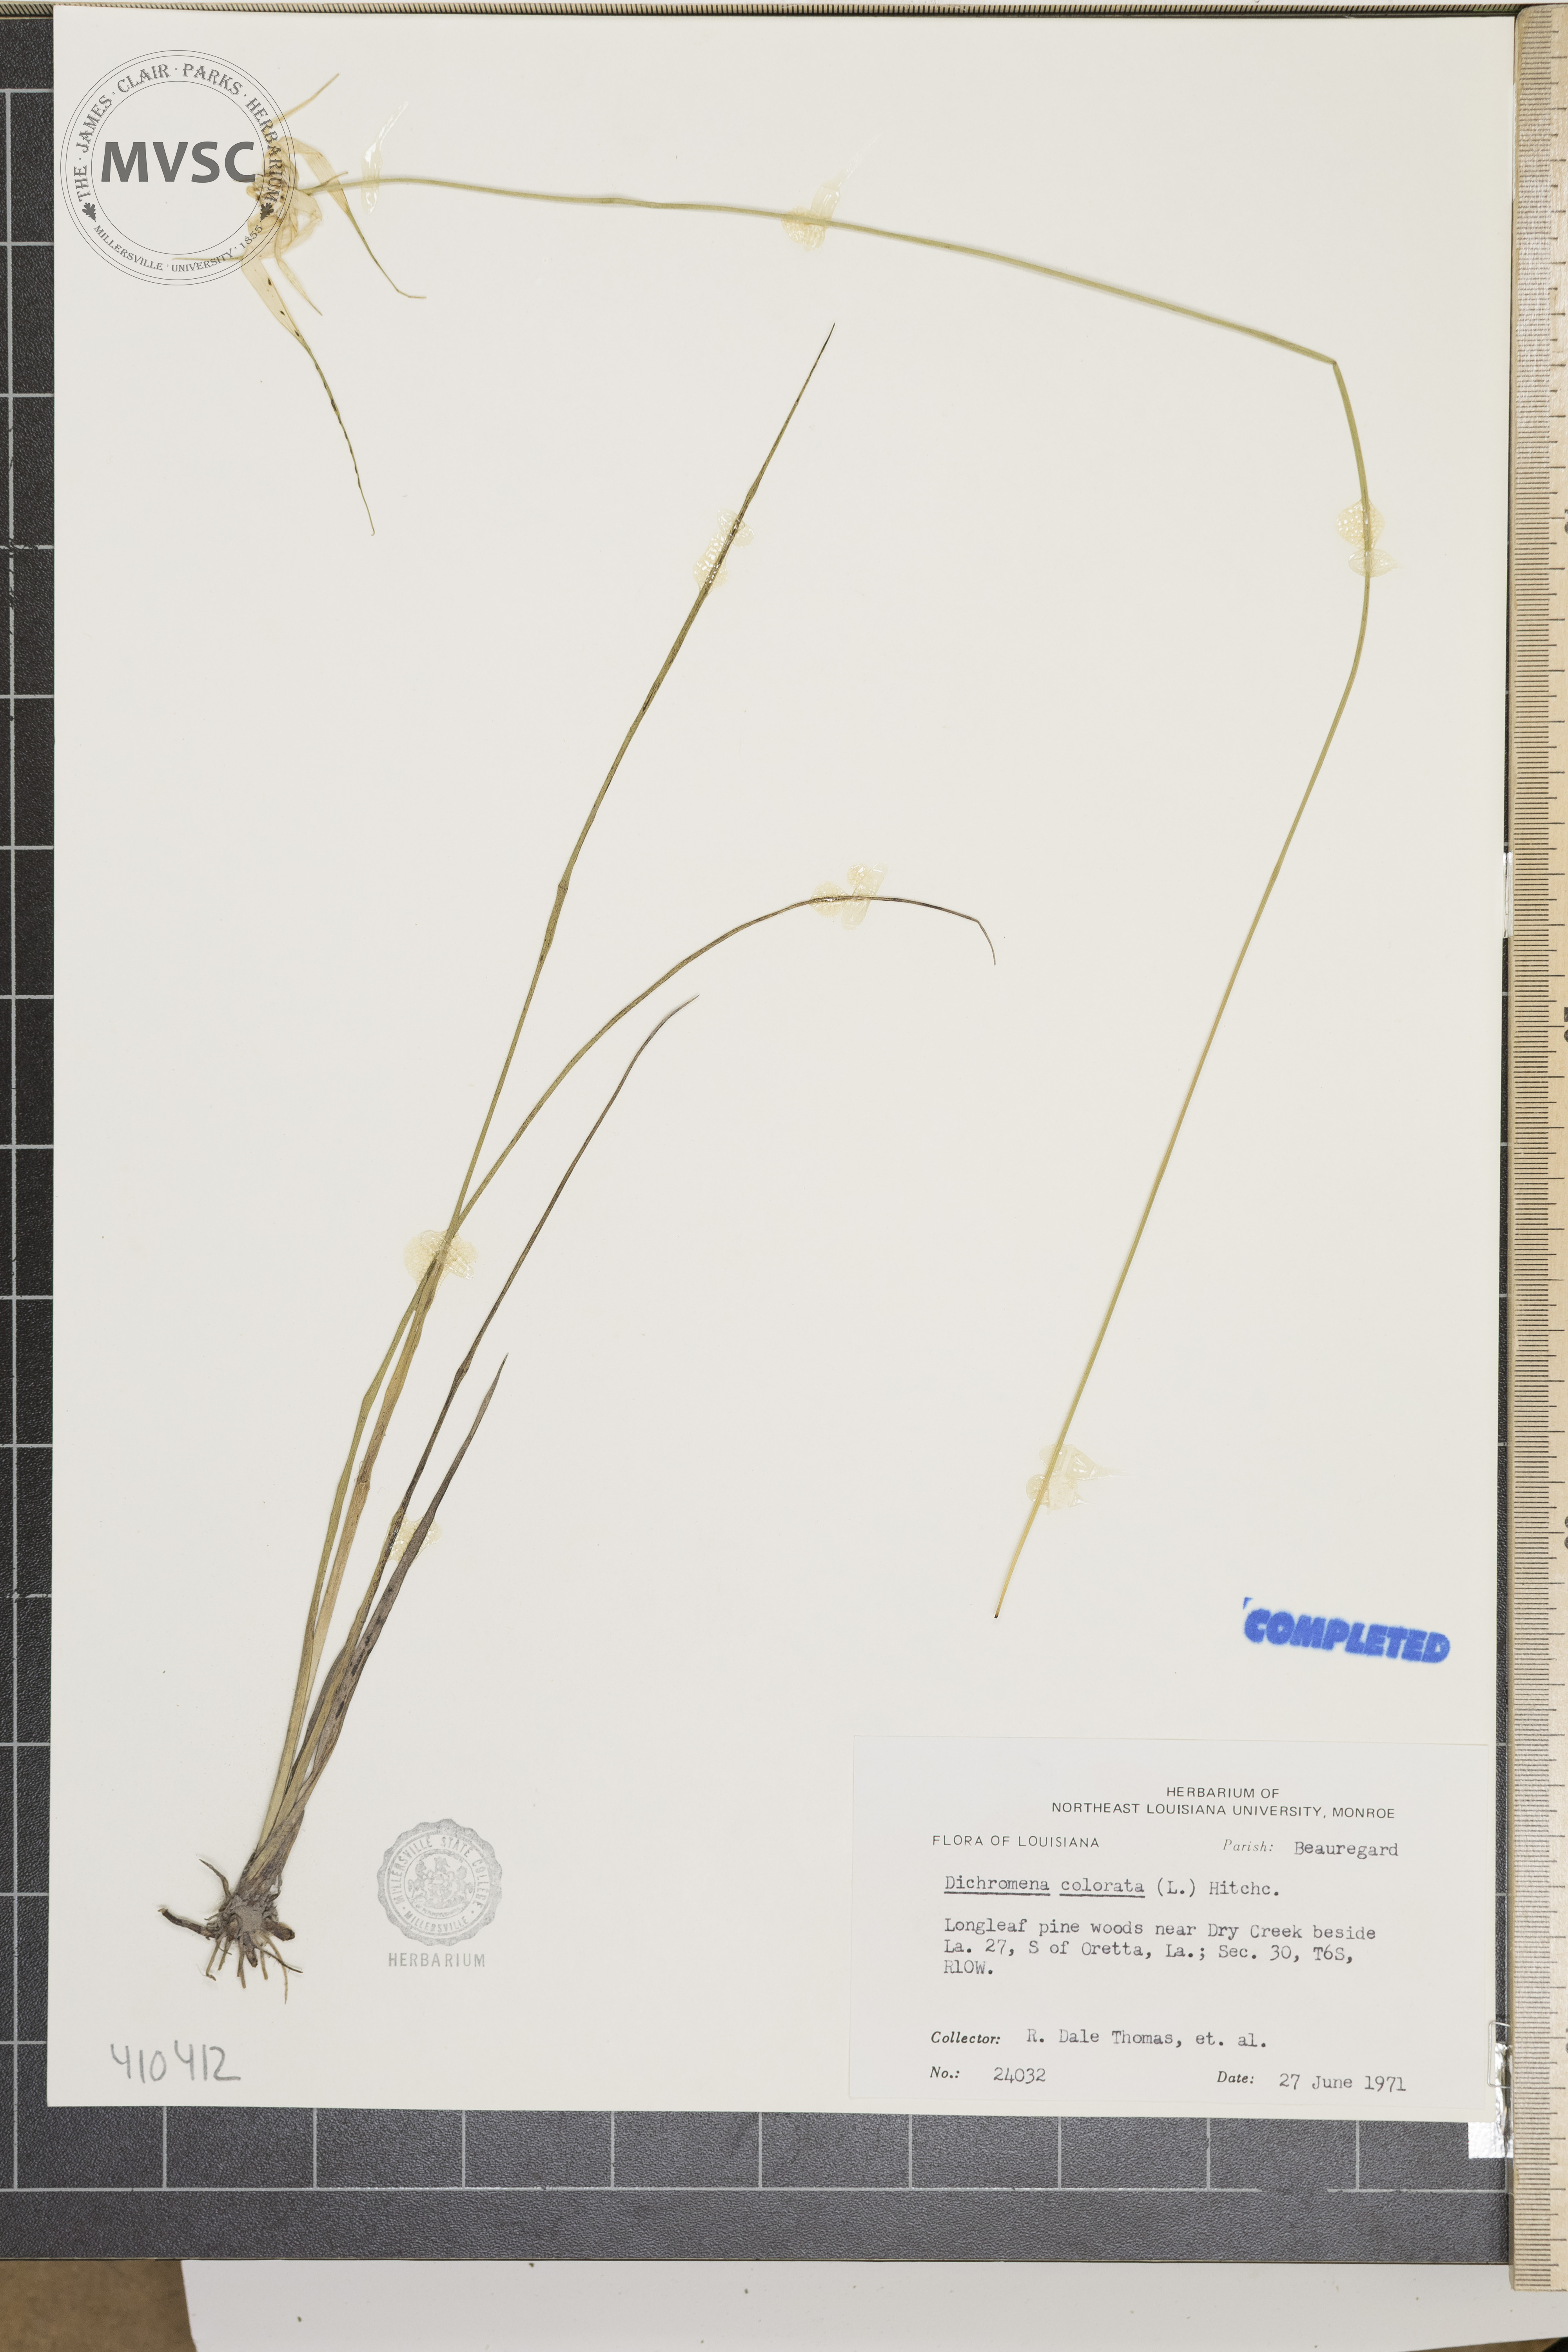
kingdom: Plantae
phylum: Tracheophyta
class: Liliopsida
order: Poales
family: Cyperaceae
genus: Rhynchospora
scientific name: Rhynchospora colorata
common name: Star sedge
